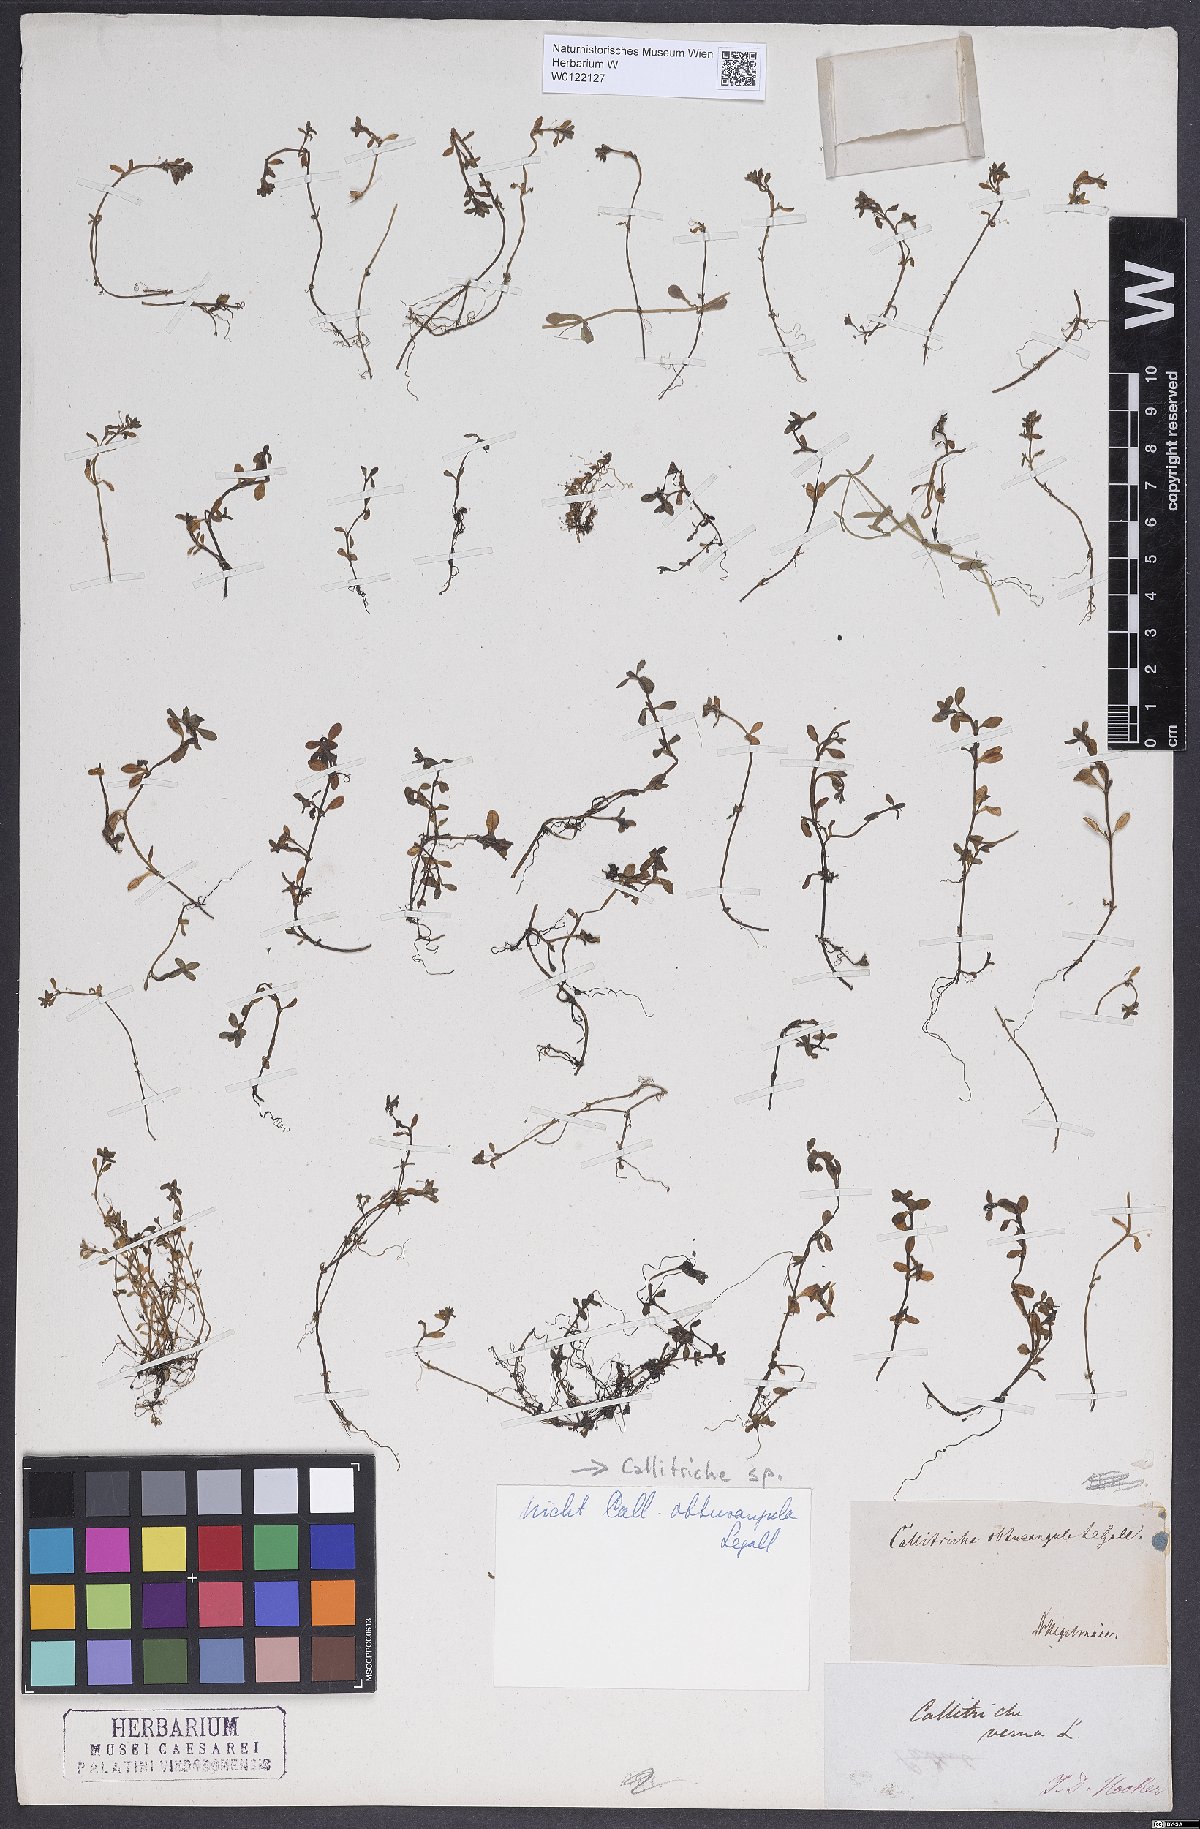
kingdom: Plantae
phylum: Tracheophyta
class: Magnoliopsida
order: Lamiales
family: Plantaginaceae
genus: Callitriche
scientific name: Callitriche
